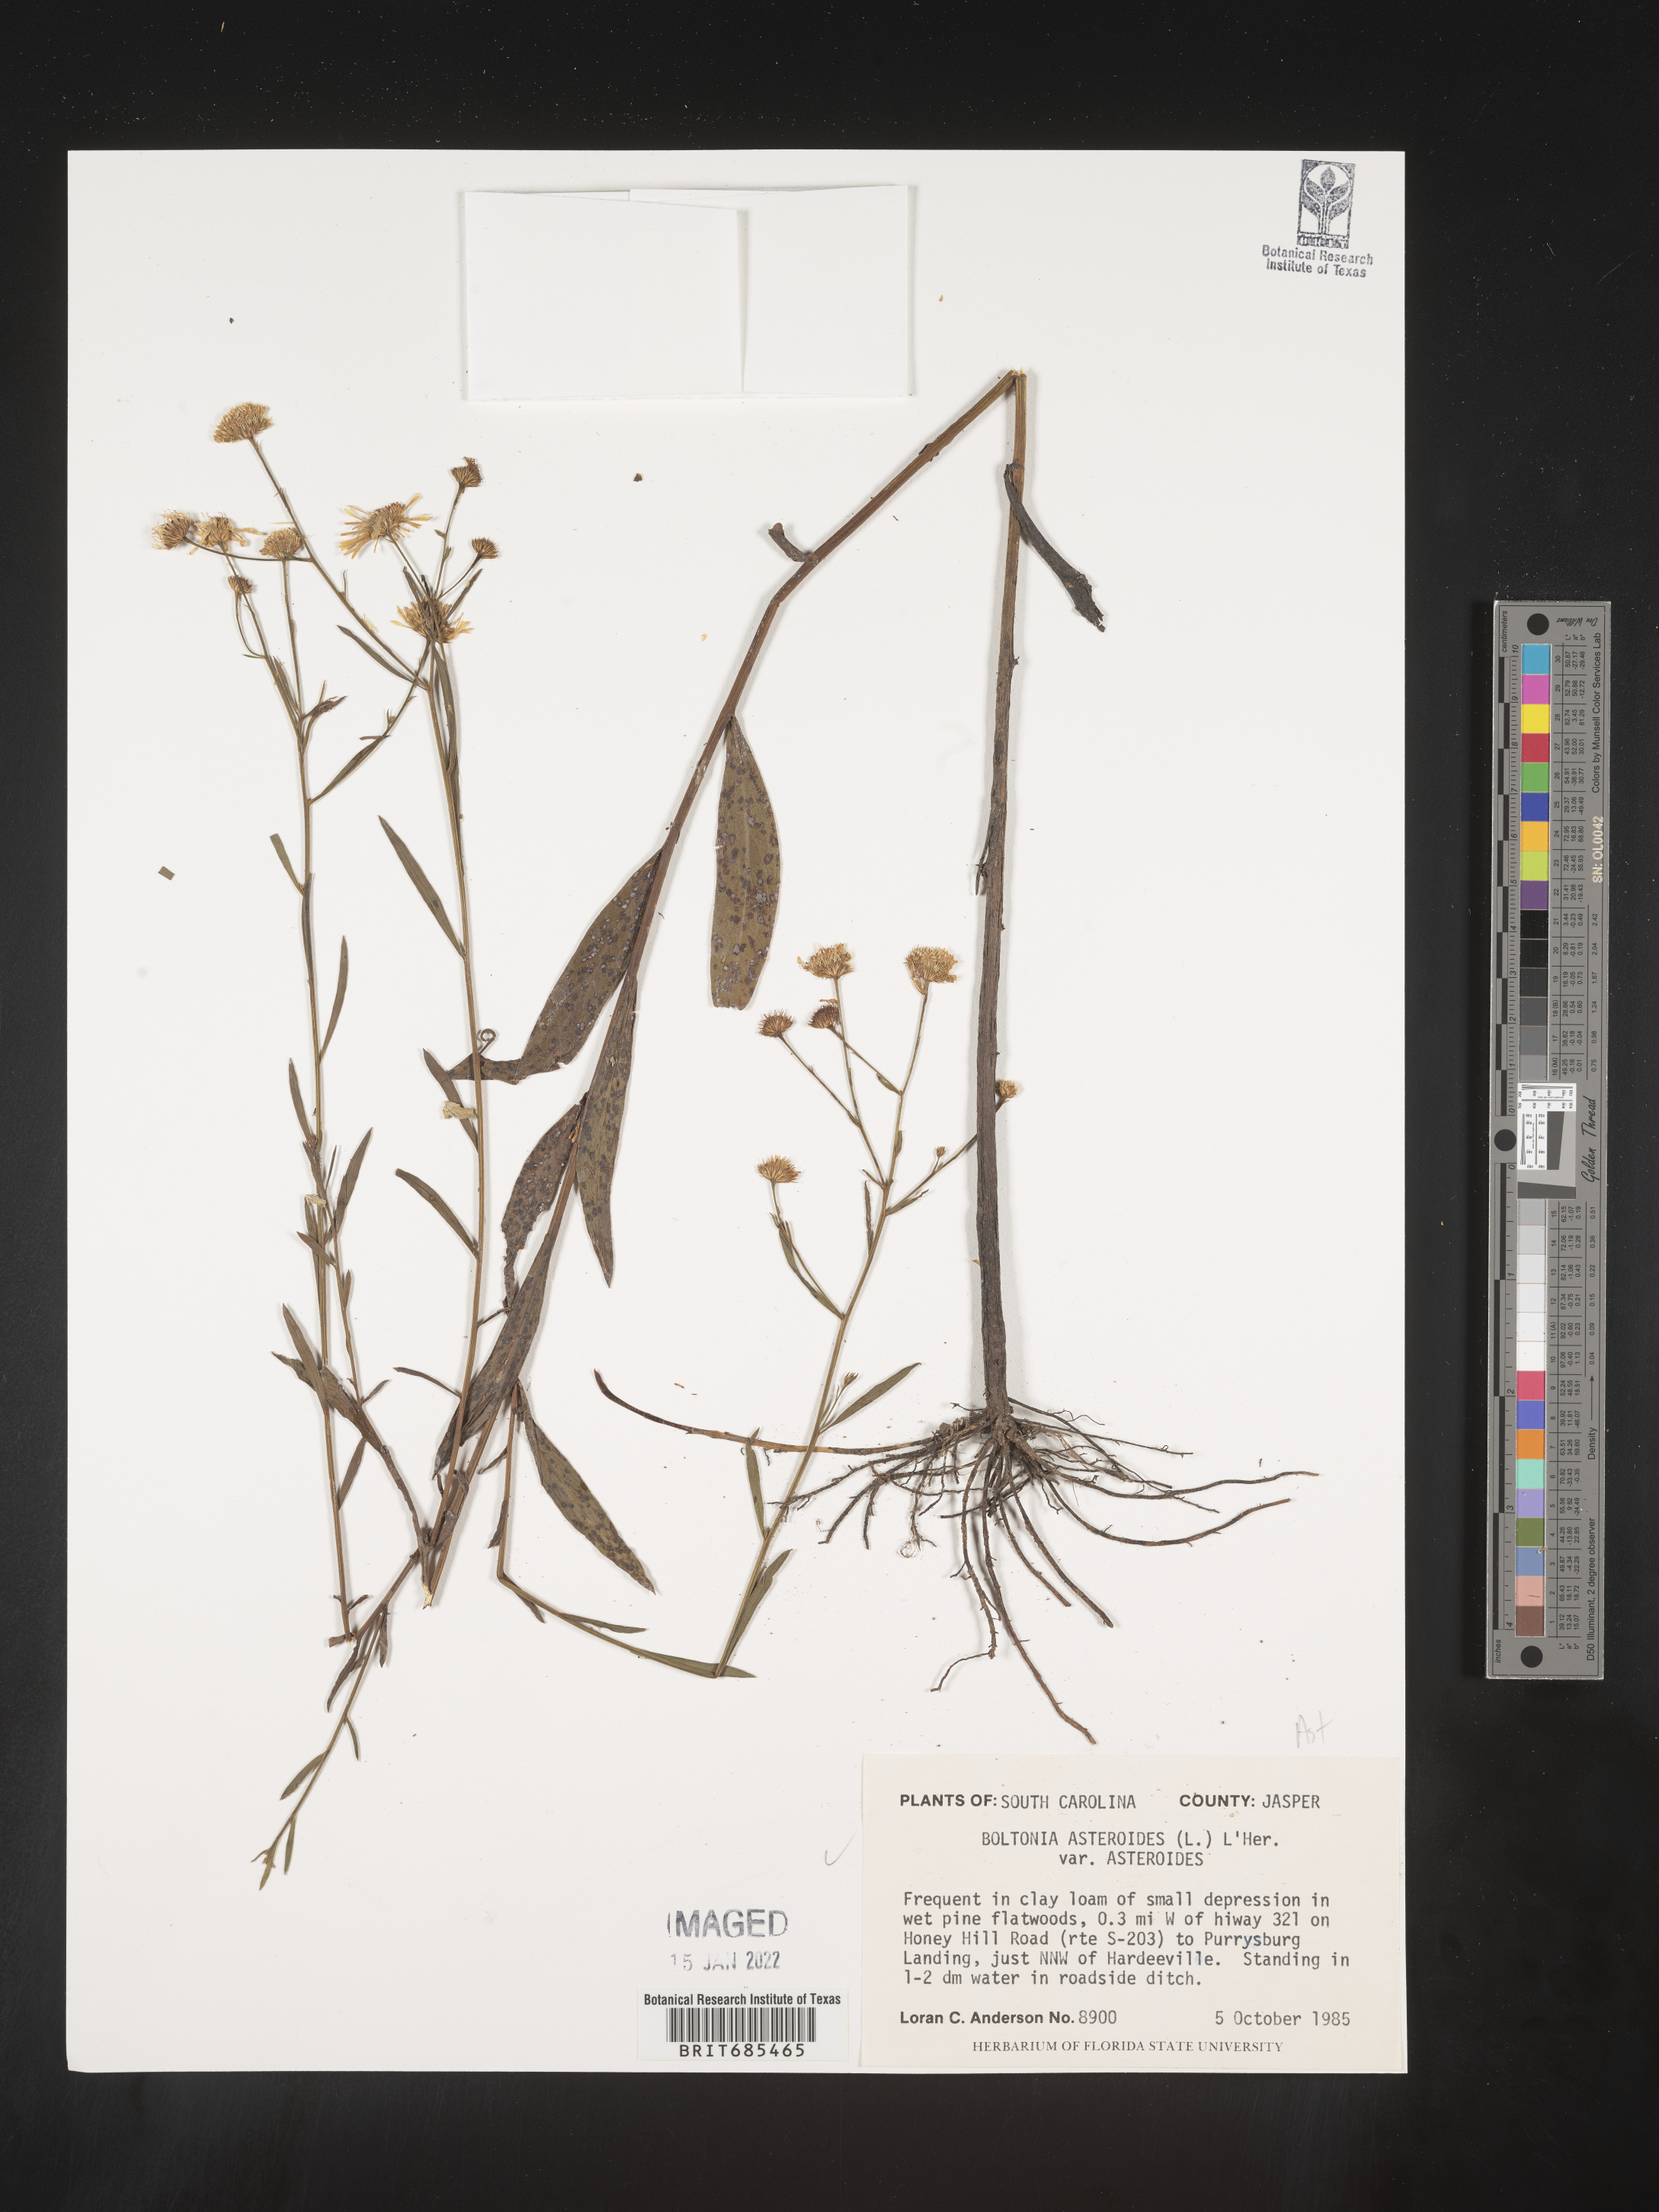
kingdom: Plantae
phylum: Tracheophyta
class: Magnoliopsida
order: Asterales
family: Asteraceae
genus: Boltonia
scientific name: Boltonia asteroides
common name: False chamomile
